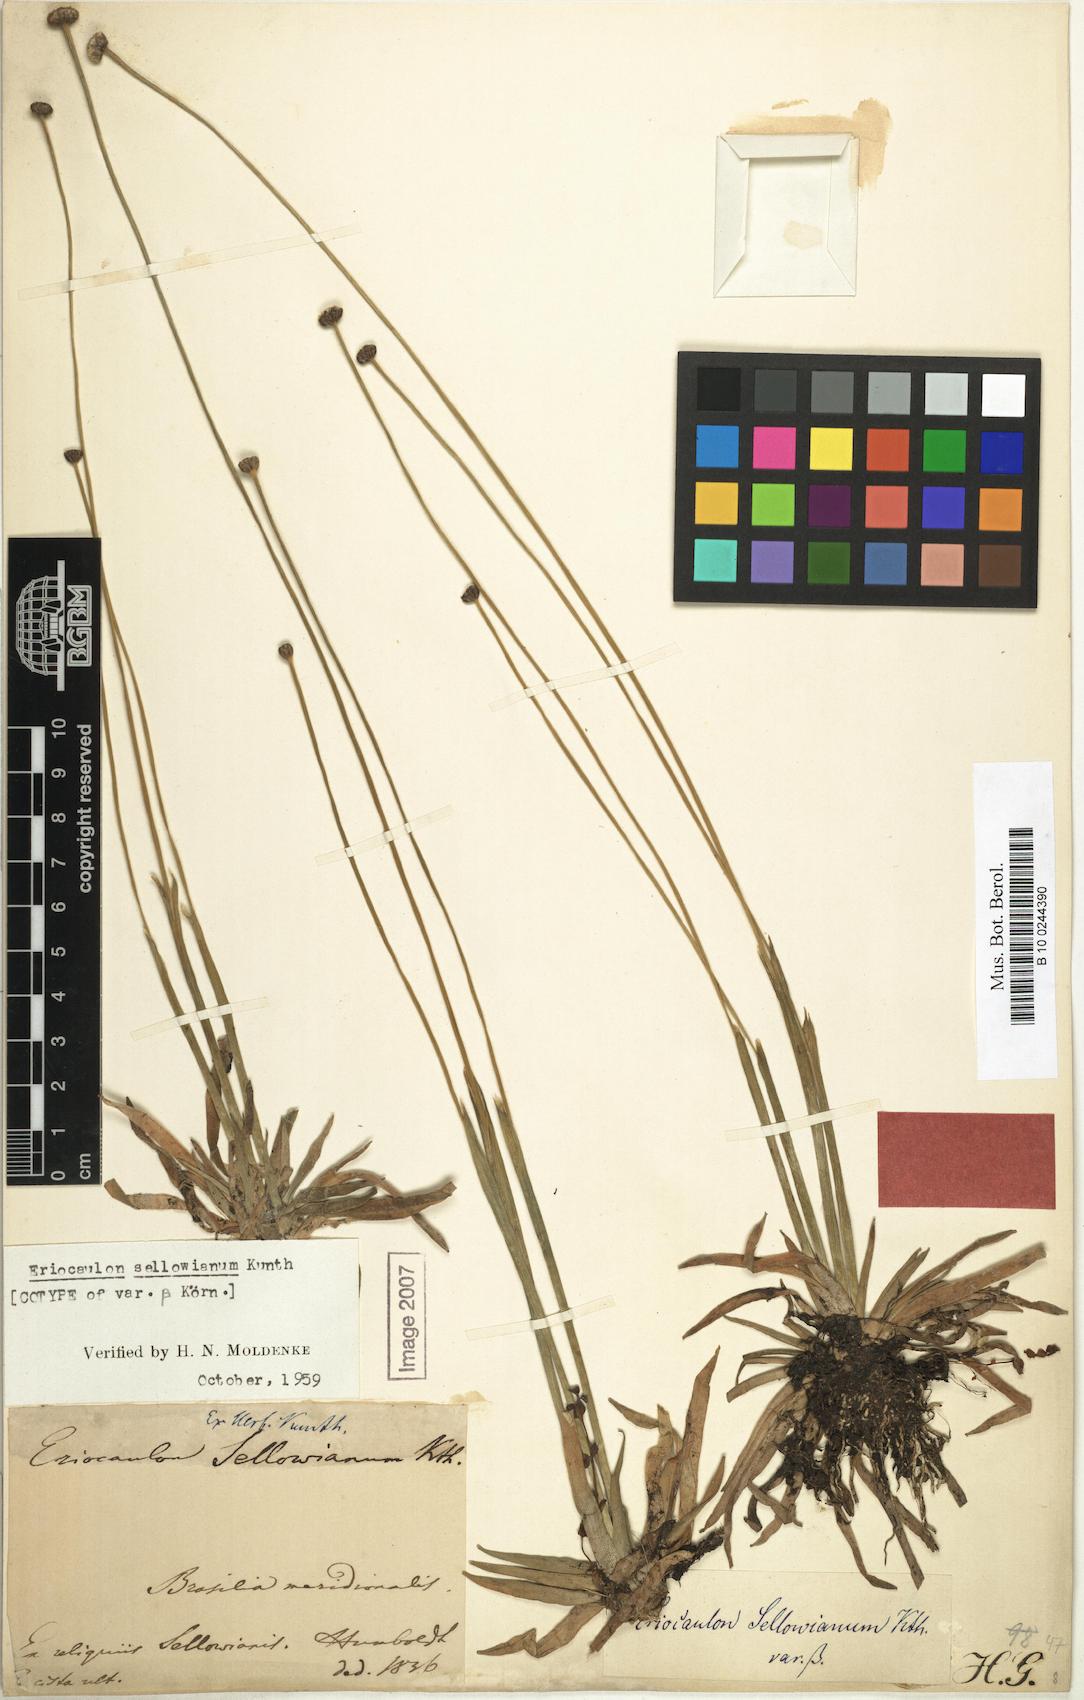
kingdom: Plantae
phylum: Tracheophyta
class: Liliopsida
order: Poales
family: Eriocaulaceae
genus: Eriocaulon
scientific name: Eriocaulon sellowianum
